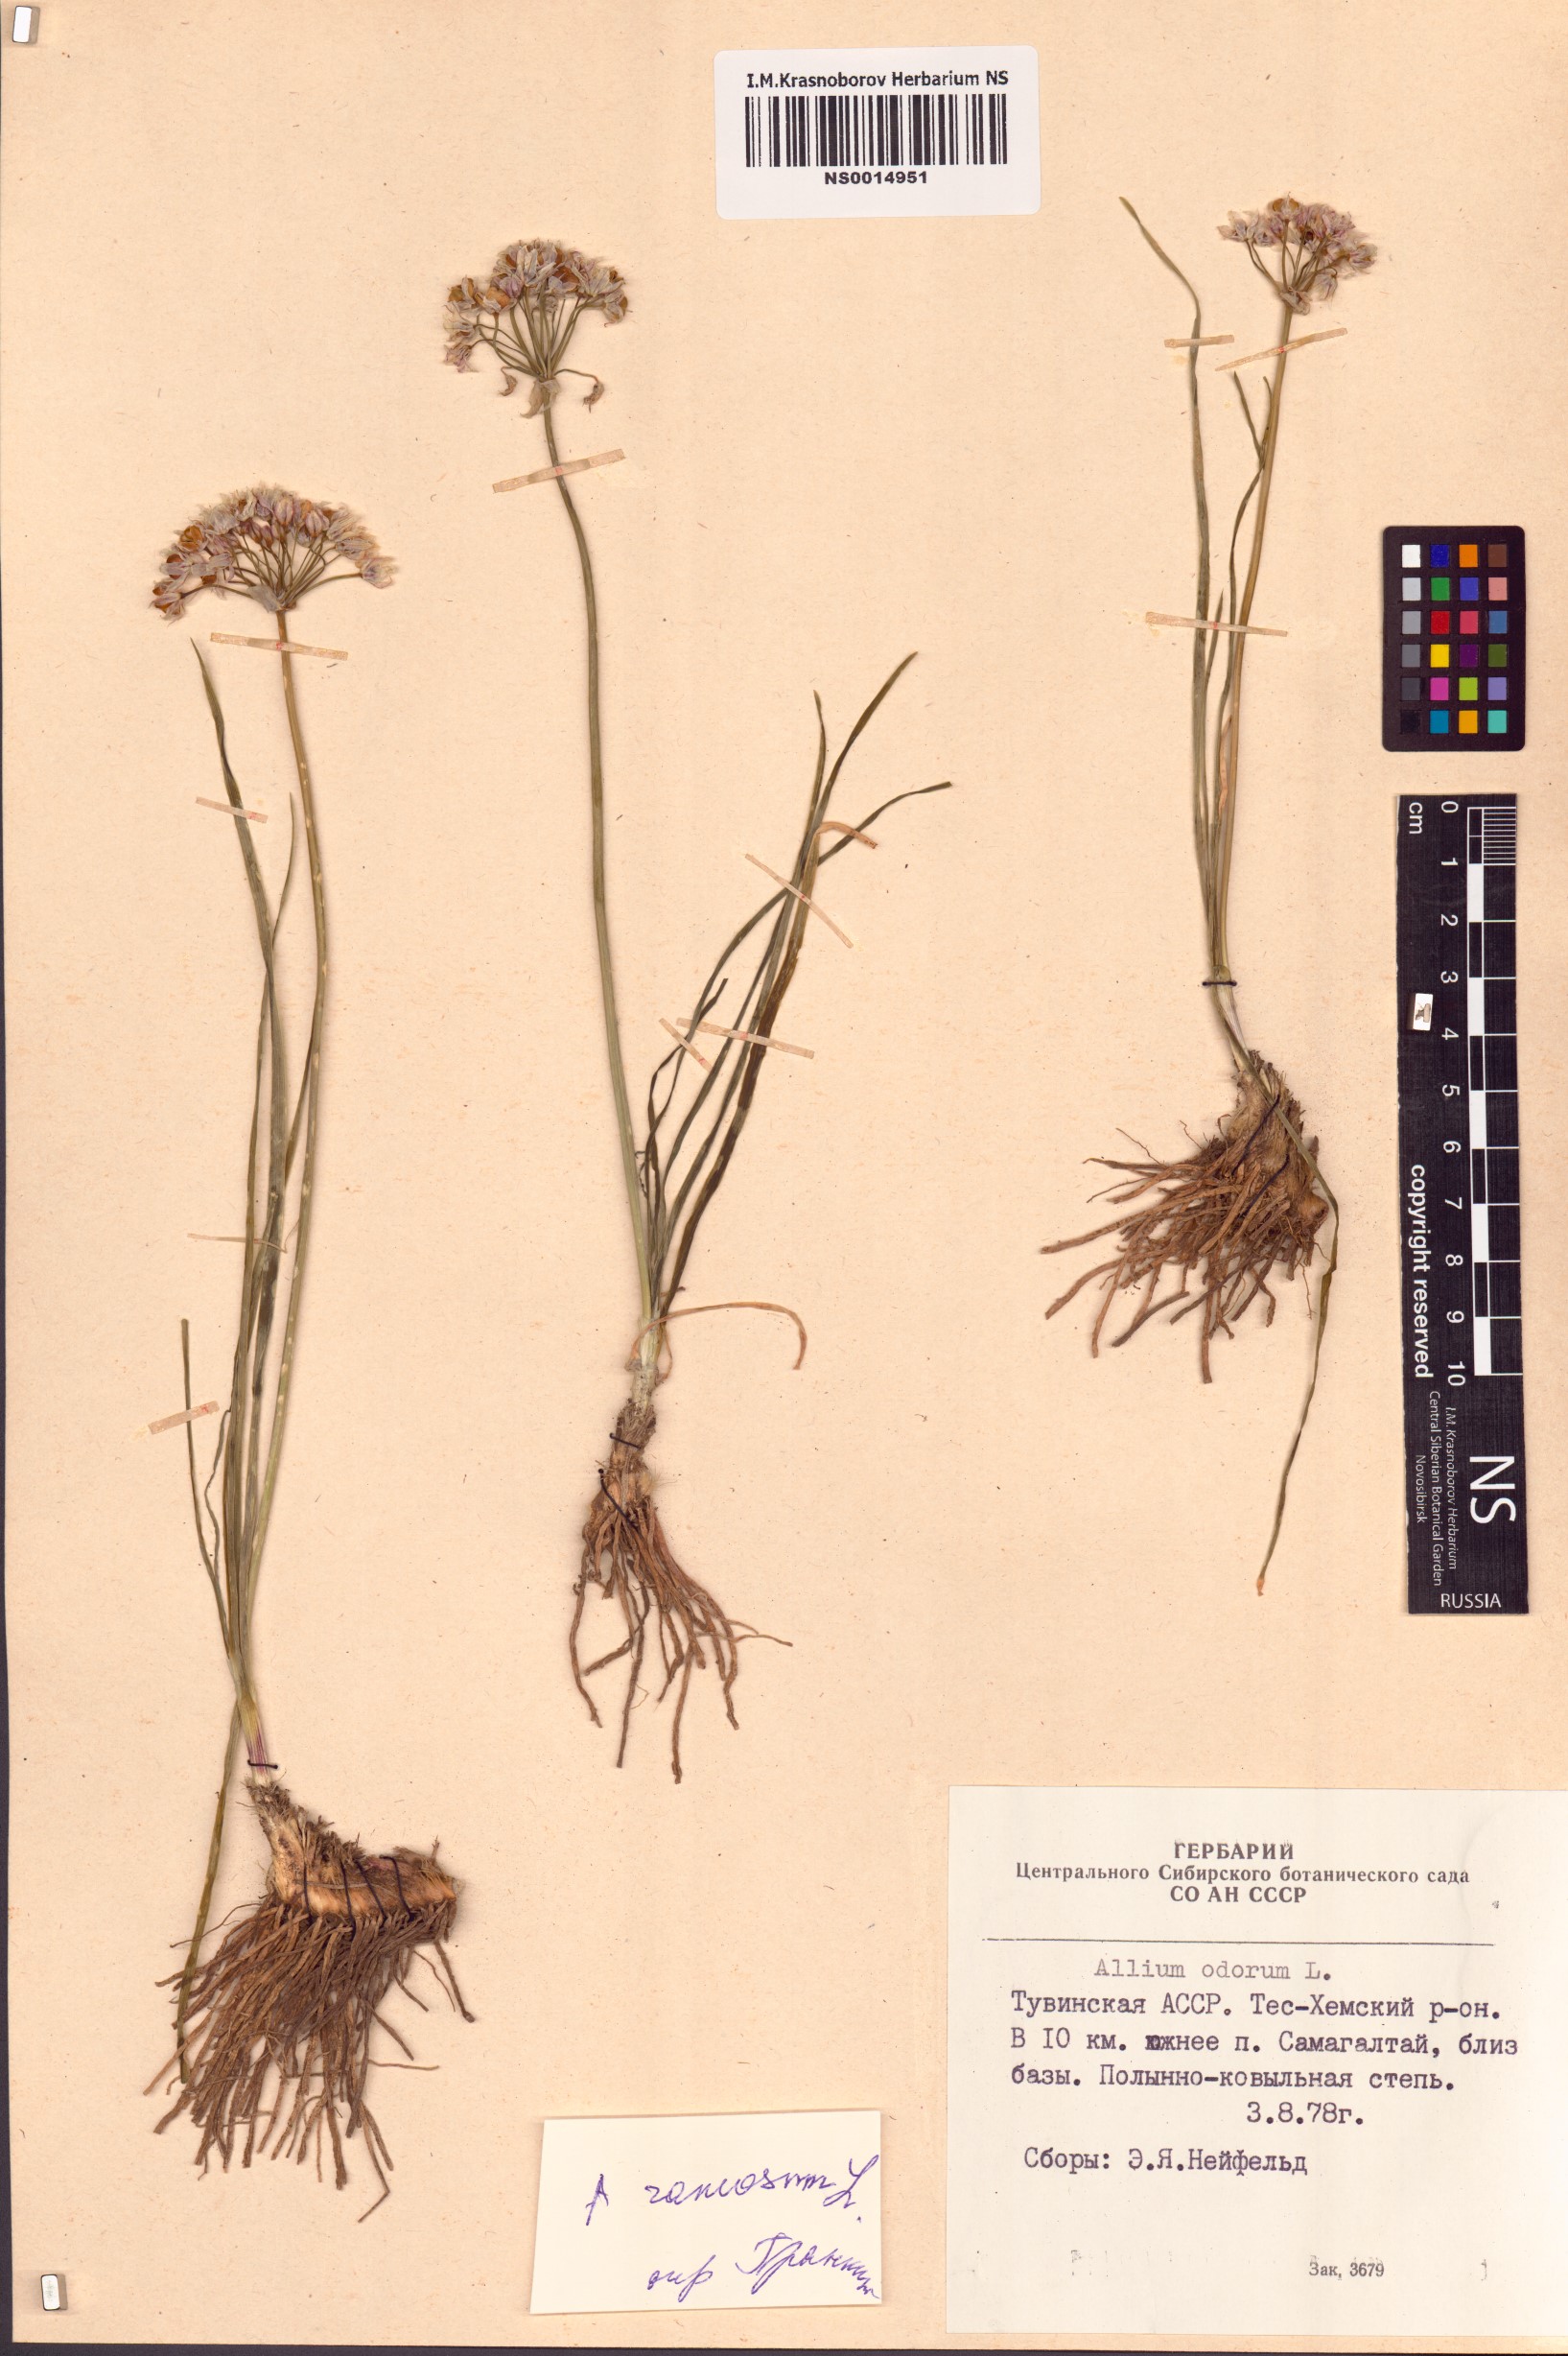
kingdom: Plantae
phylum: Tracheophyta
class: Liliopsida
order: Asparagales
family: Amaryllidaceae
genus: Allium
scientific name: Allium ramosum
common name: Fragrant garlic
